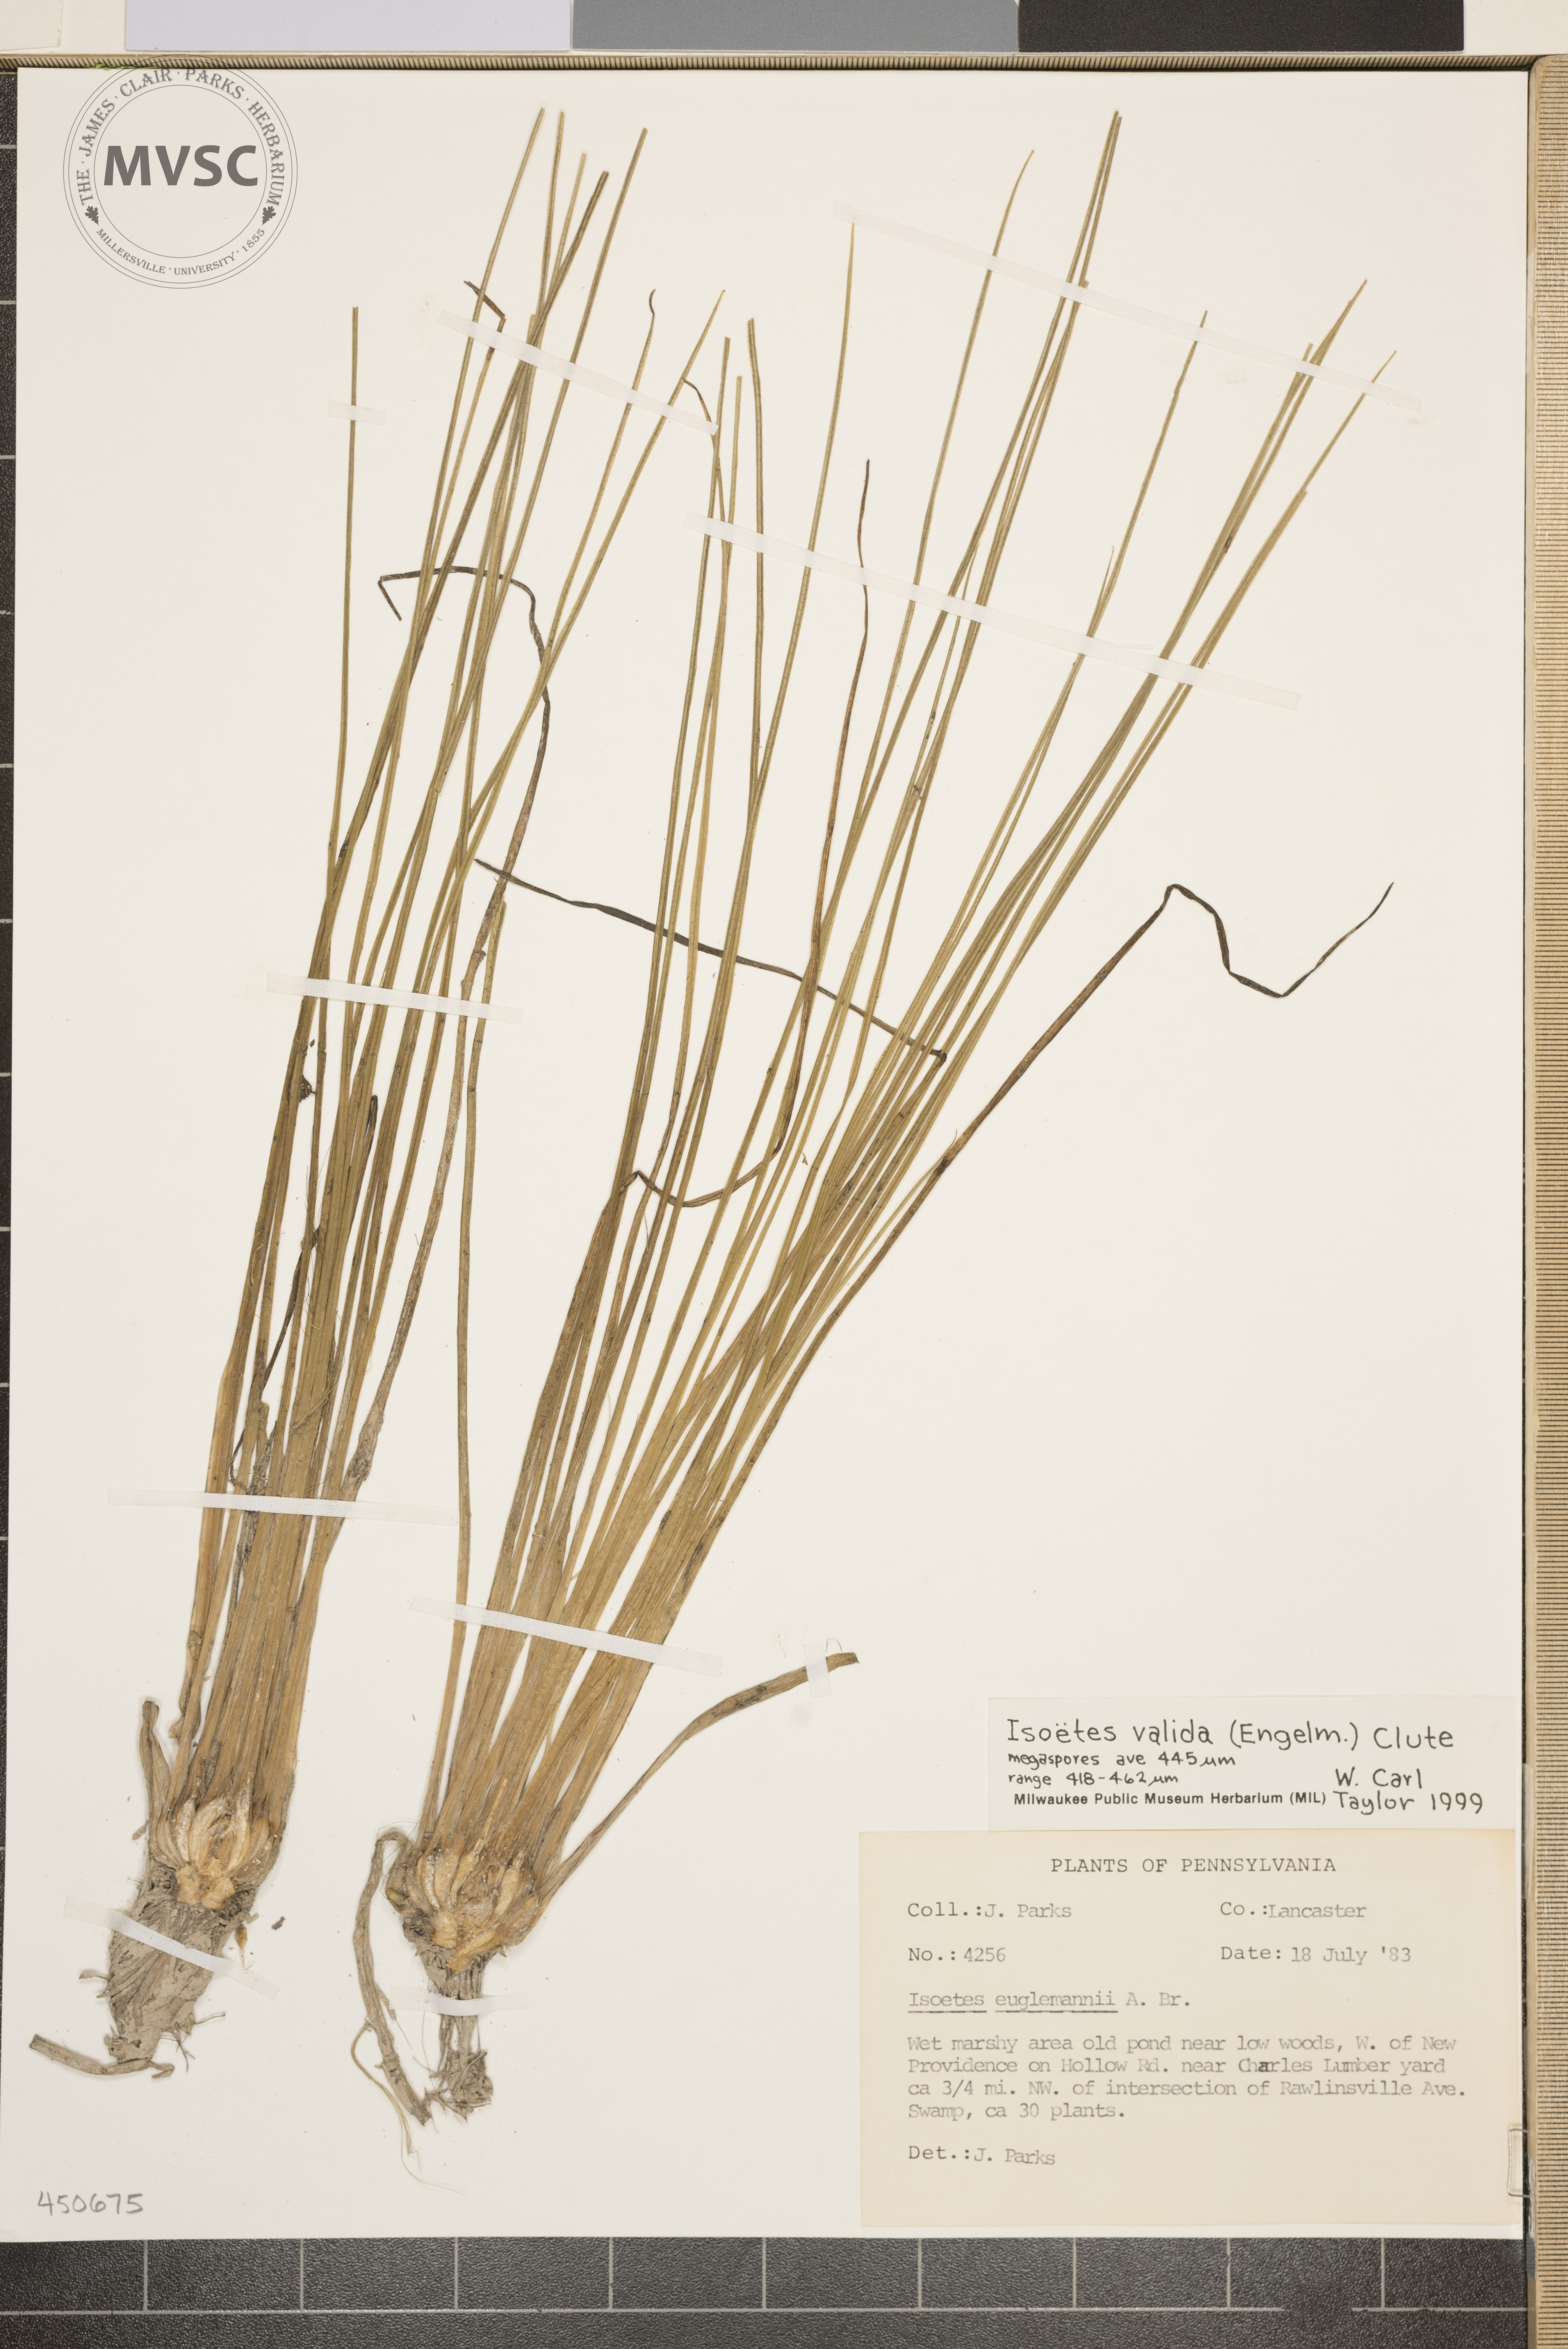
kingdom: Plantae
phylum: Tracheophyta
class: Lycopodiopsida
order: Isoetales
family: Isoetaceae
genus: Isoetes
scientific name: Isoetes valida
